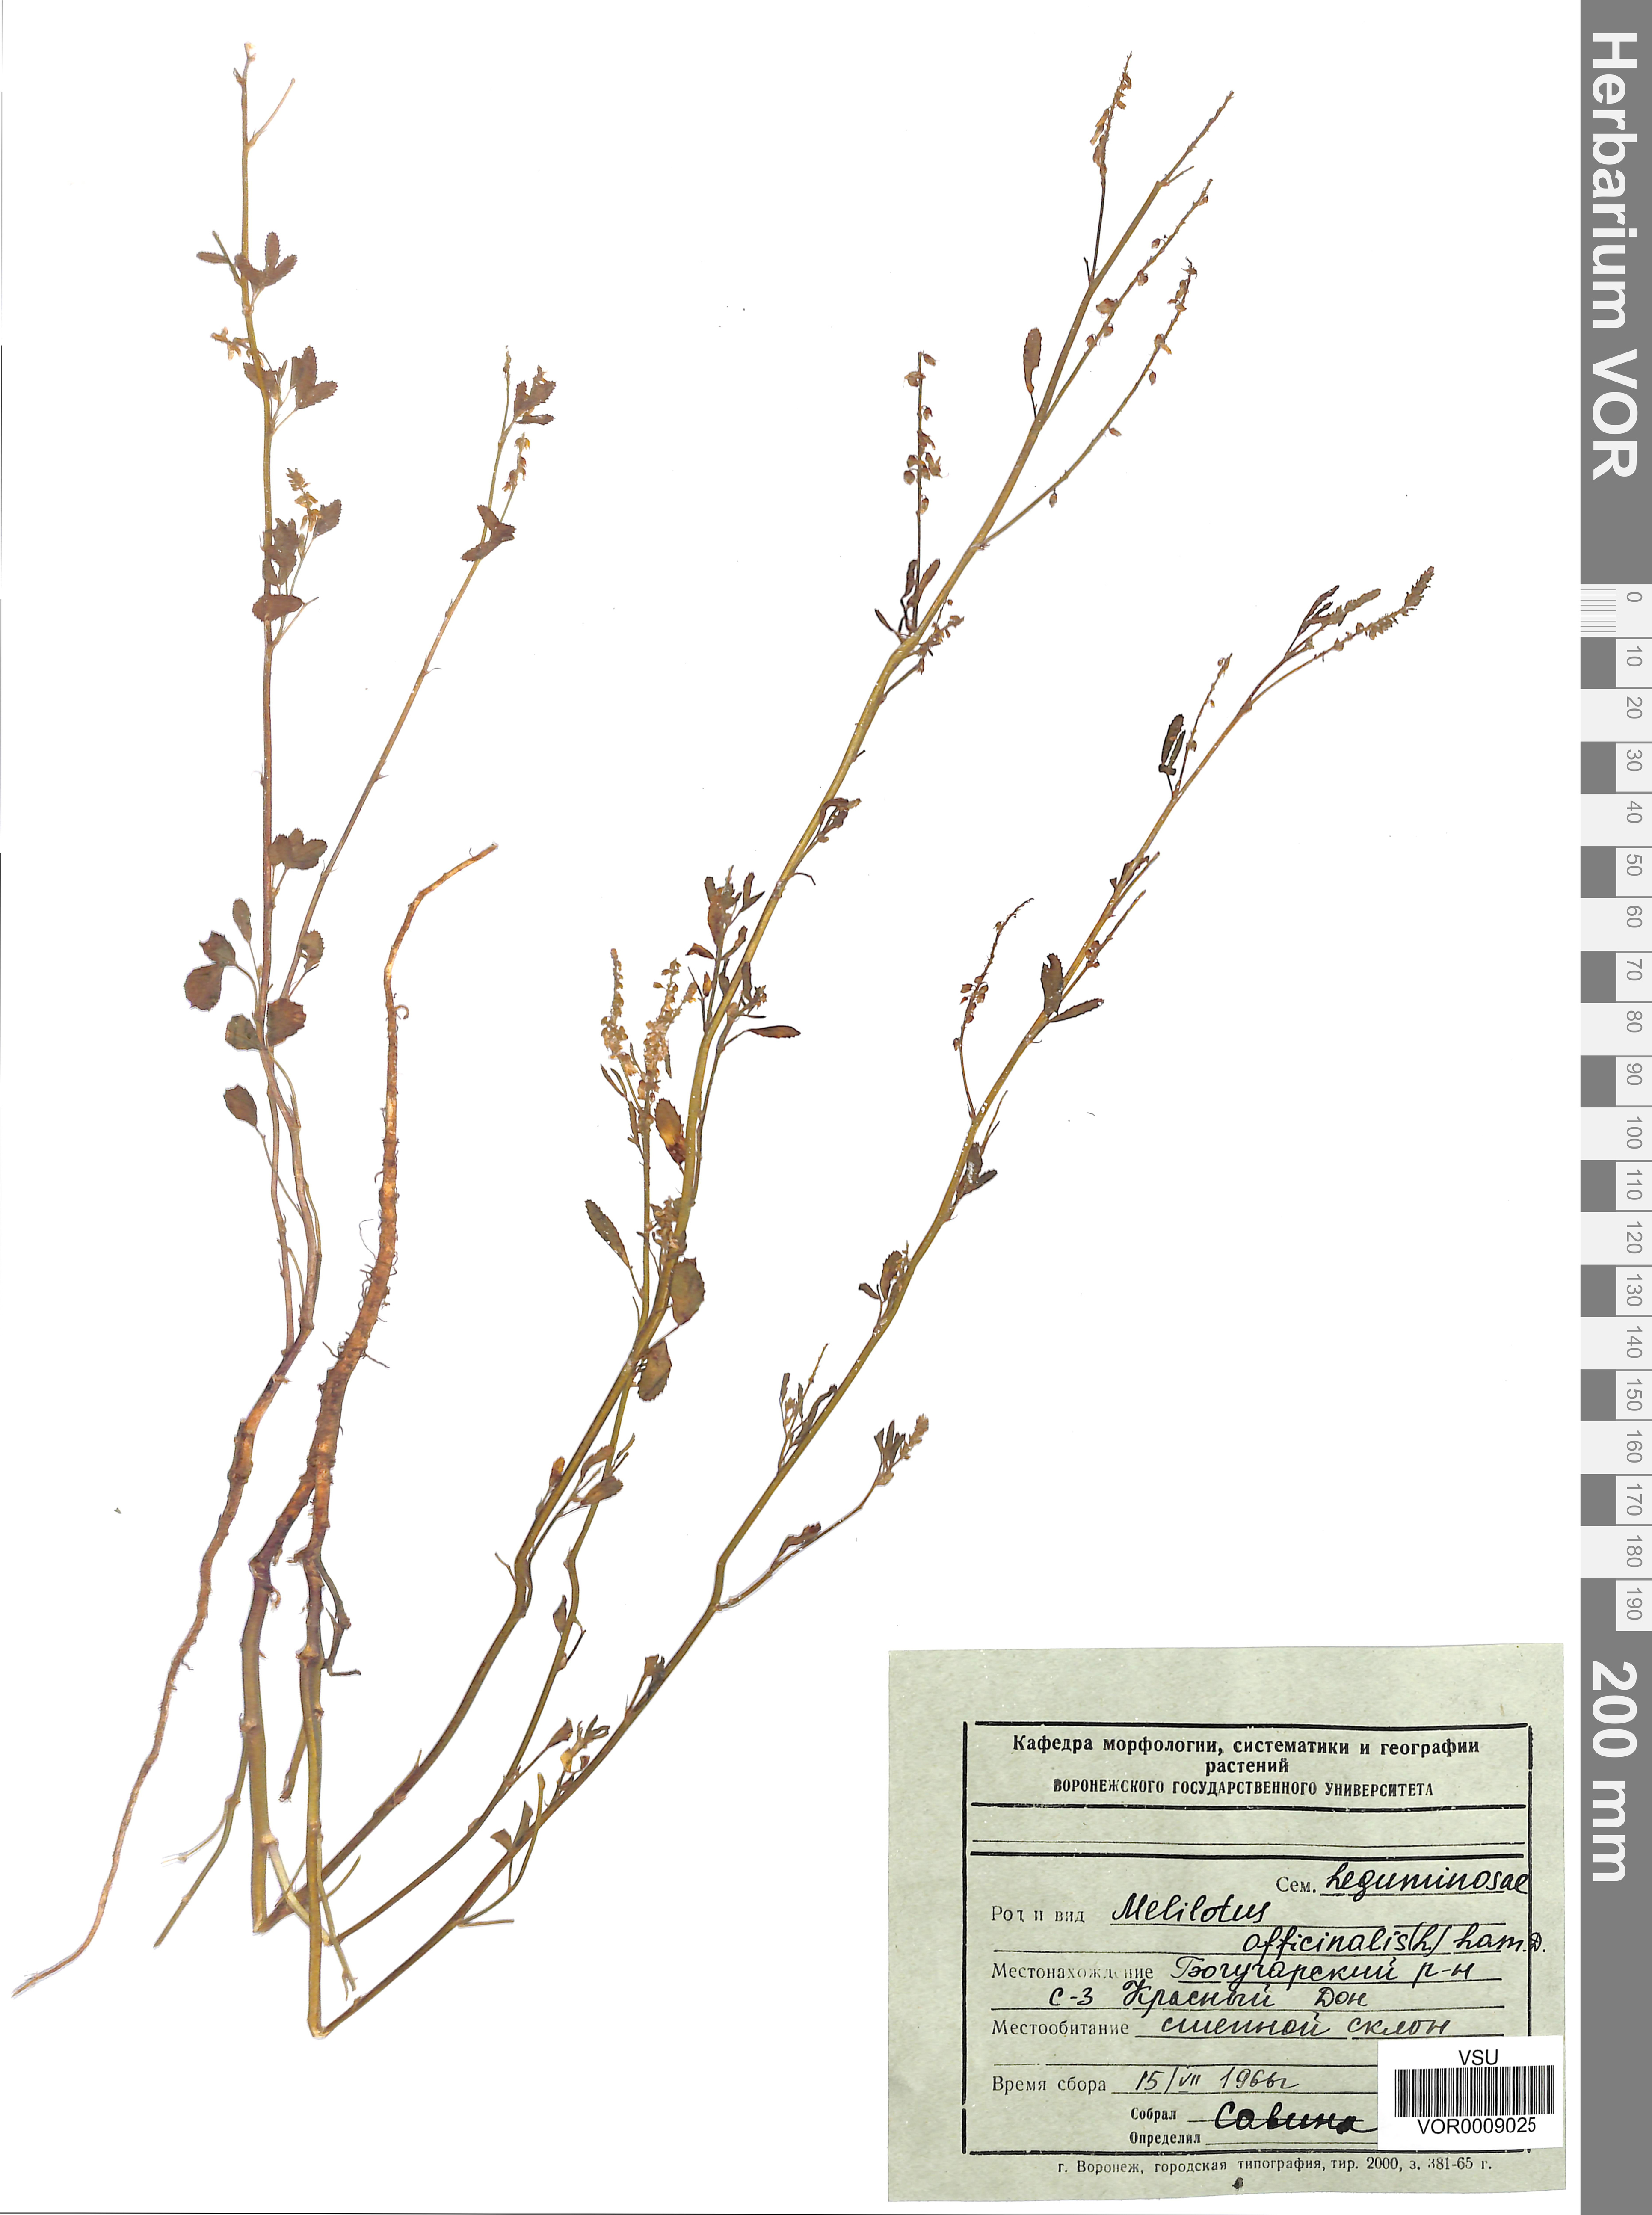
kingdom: Plantae
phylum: Tracheophyta
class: Magnoliopsida
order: Fabales
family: Fabaceae
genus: Melilotus
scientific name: Melilotus officinalis
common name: Sweetclover
